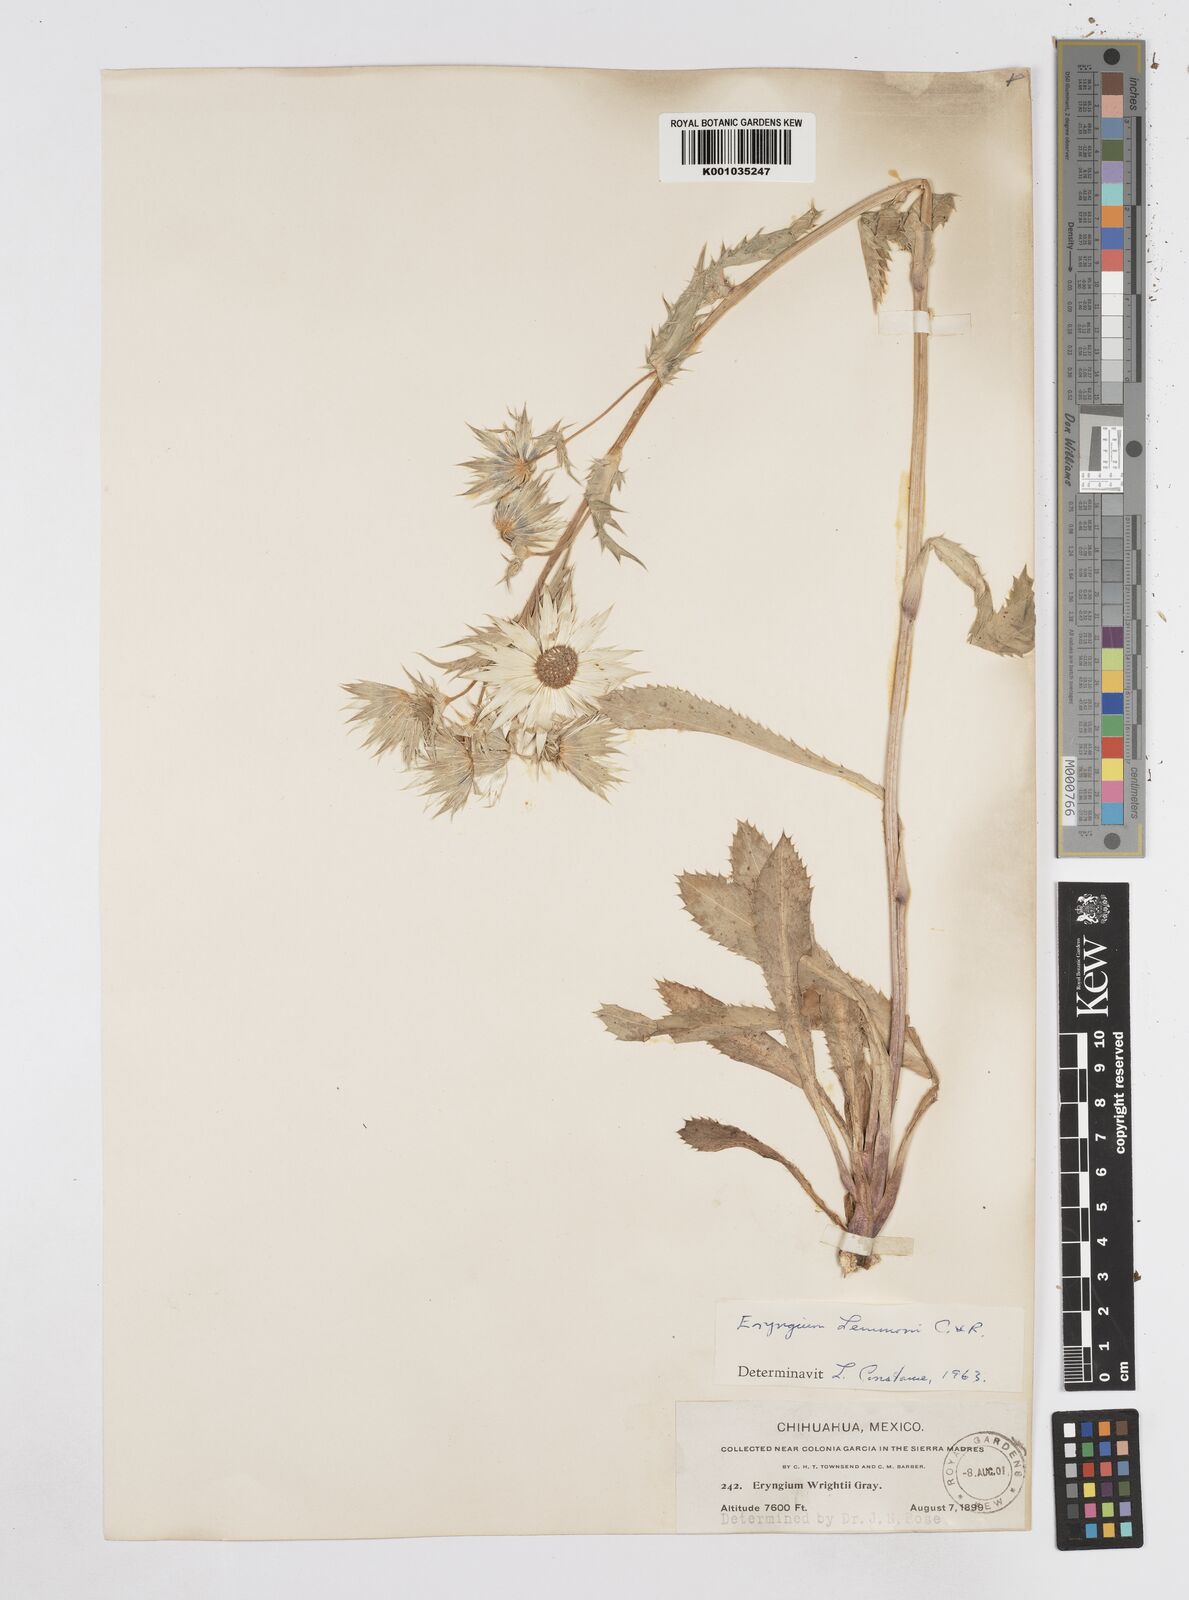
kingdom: Plantae
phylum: Tracheophyta
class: Magnoliopsida
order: Apiales
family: Apiaceae
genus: Eryngium
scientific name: Eryngium lemmonii
